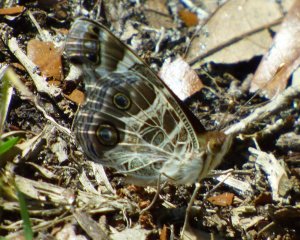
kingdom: Animalia
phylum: Arthropoda
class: Insecta
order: Lepidoptera
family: Nymphalidae
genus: Vanessa
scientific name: Vanessa virginiensis
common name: American Lady
